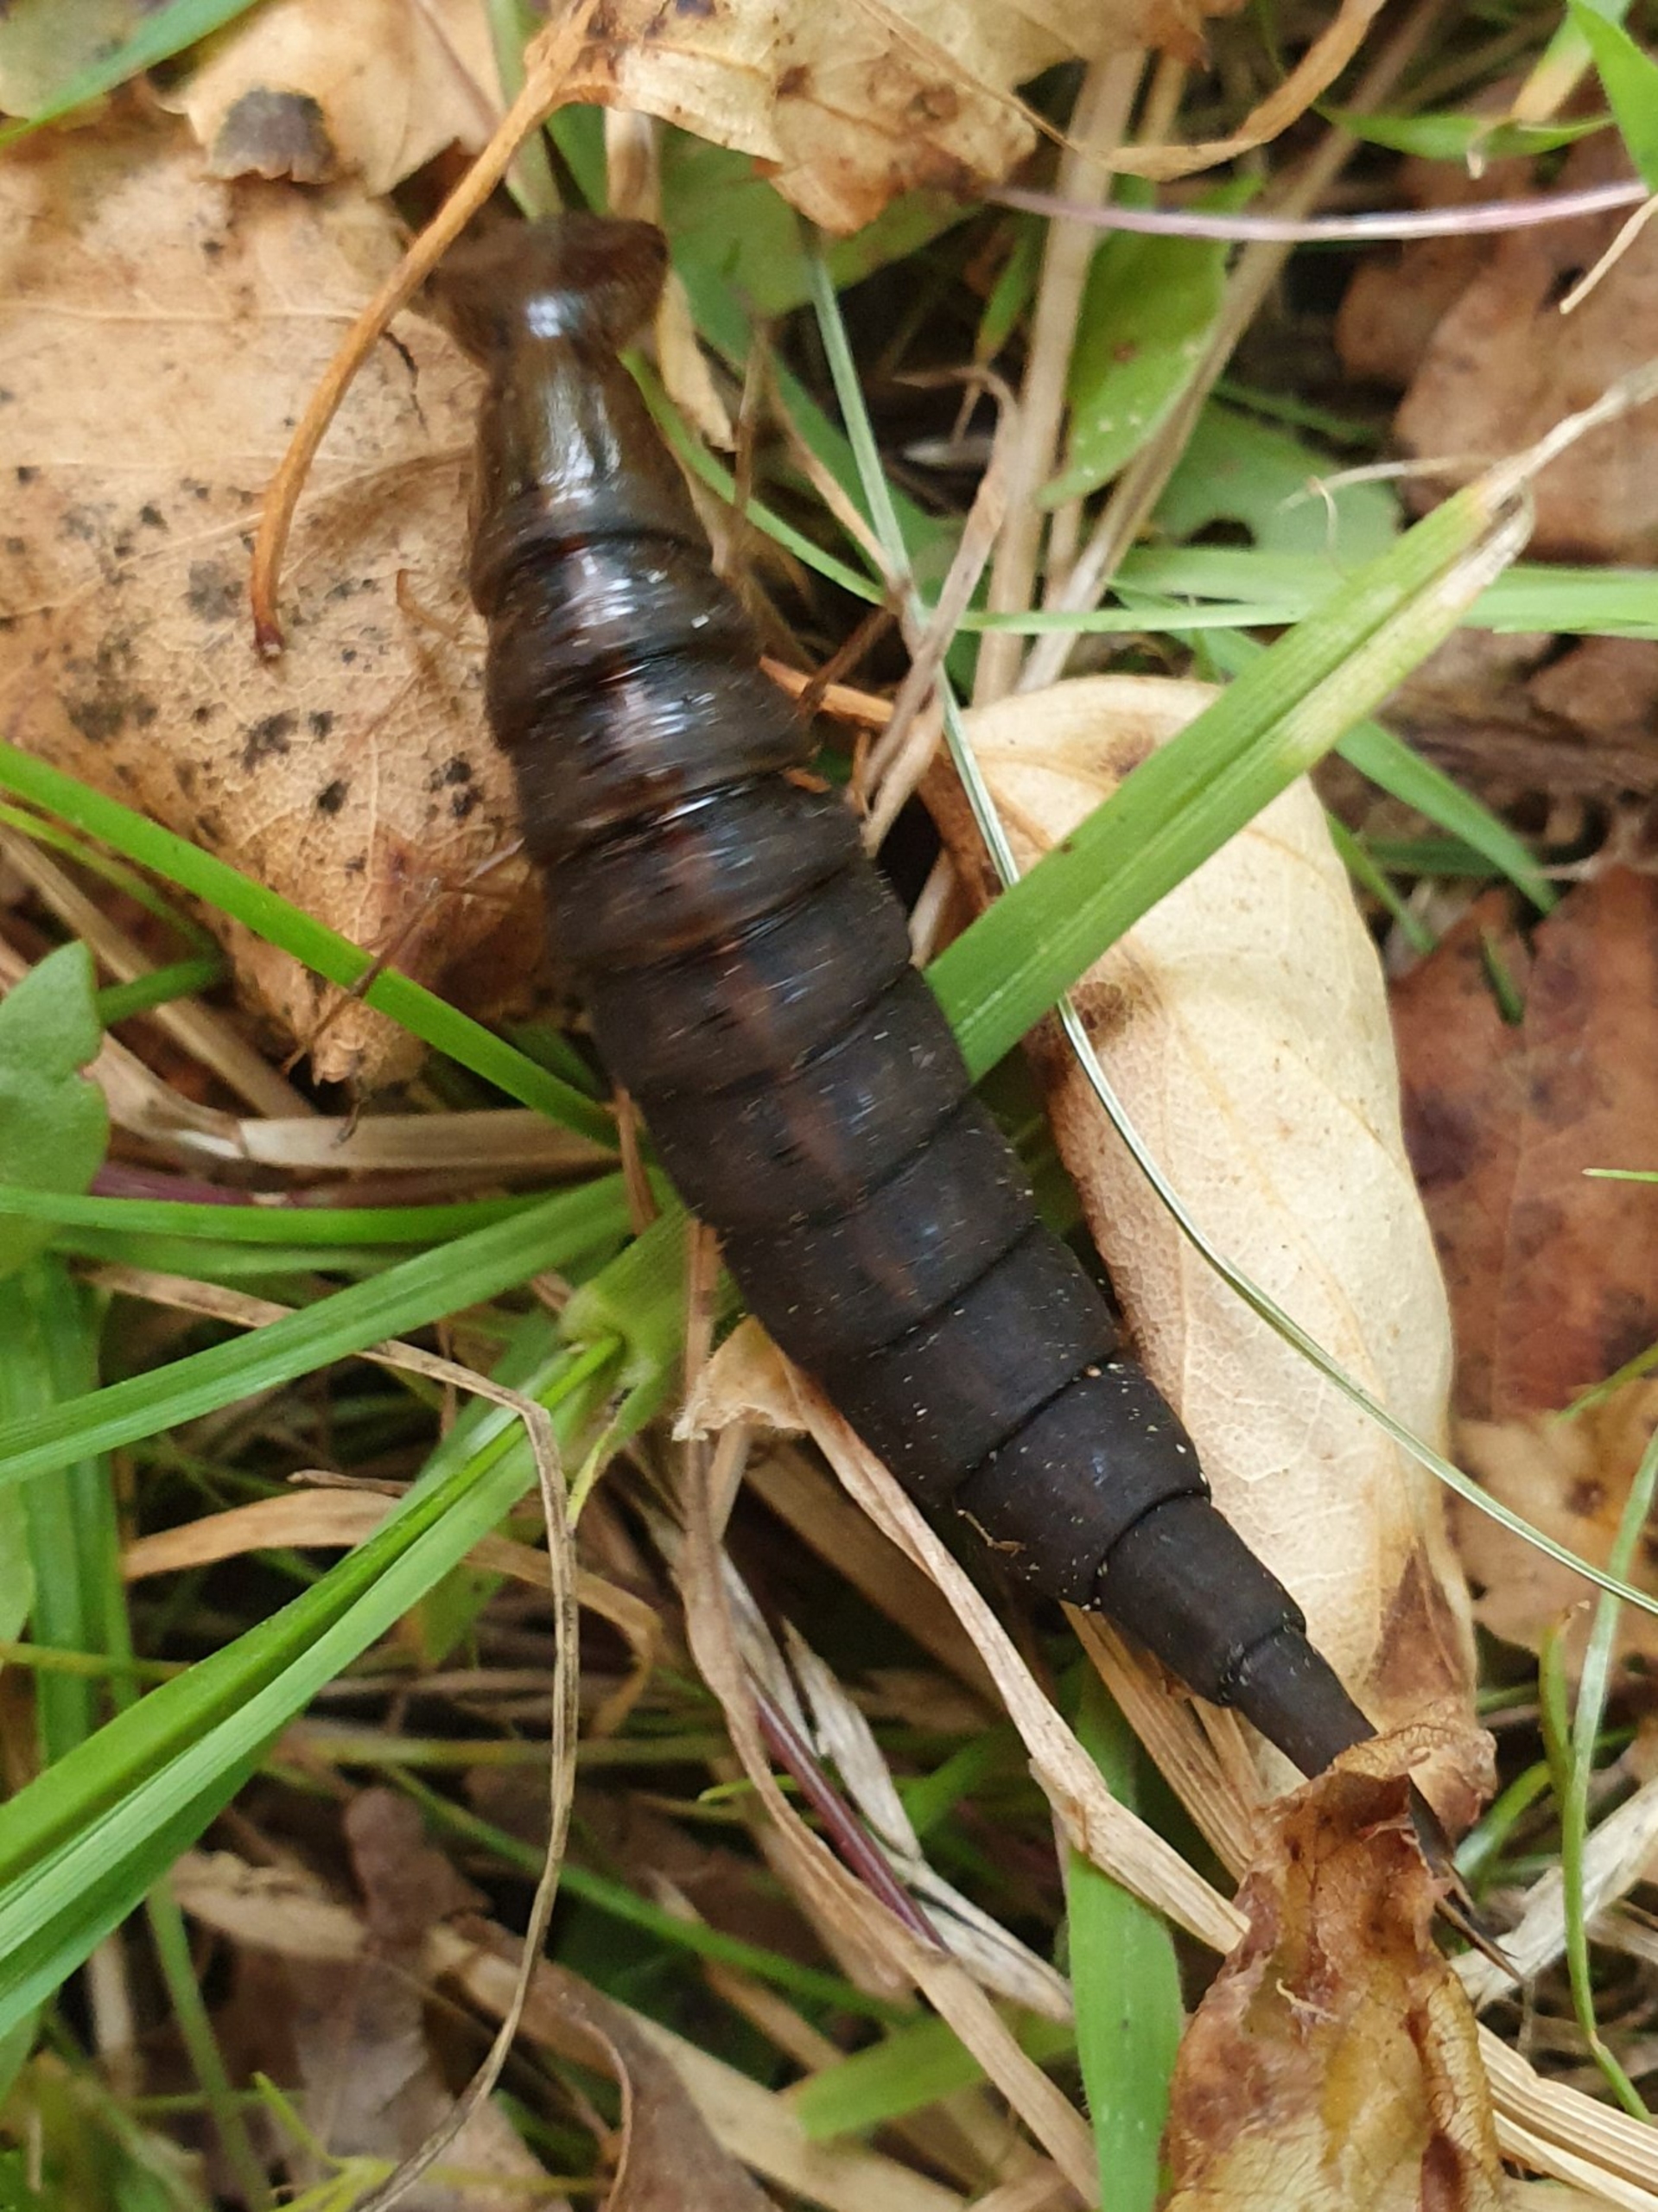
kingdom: Animalia
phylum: Arthropoda
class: Insecta
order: Coleoptera
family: Dytiscidae
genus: Dytiscus
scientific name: Dytiscus
